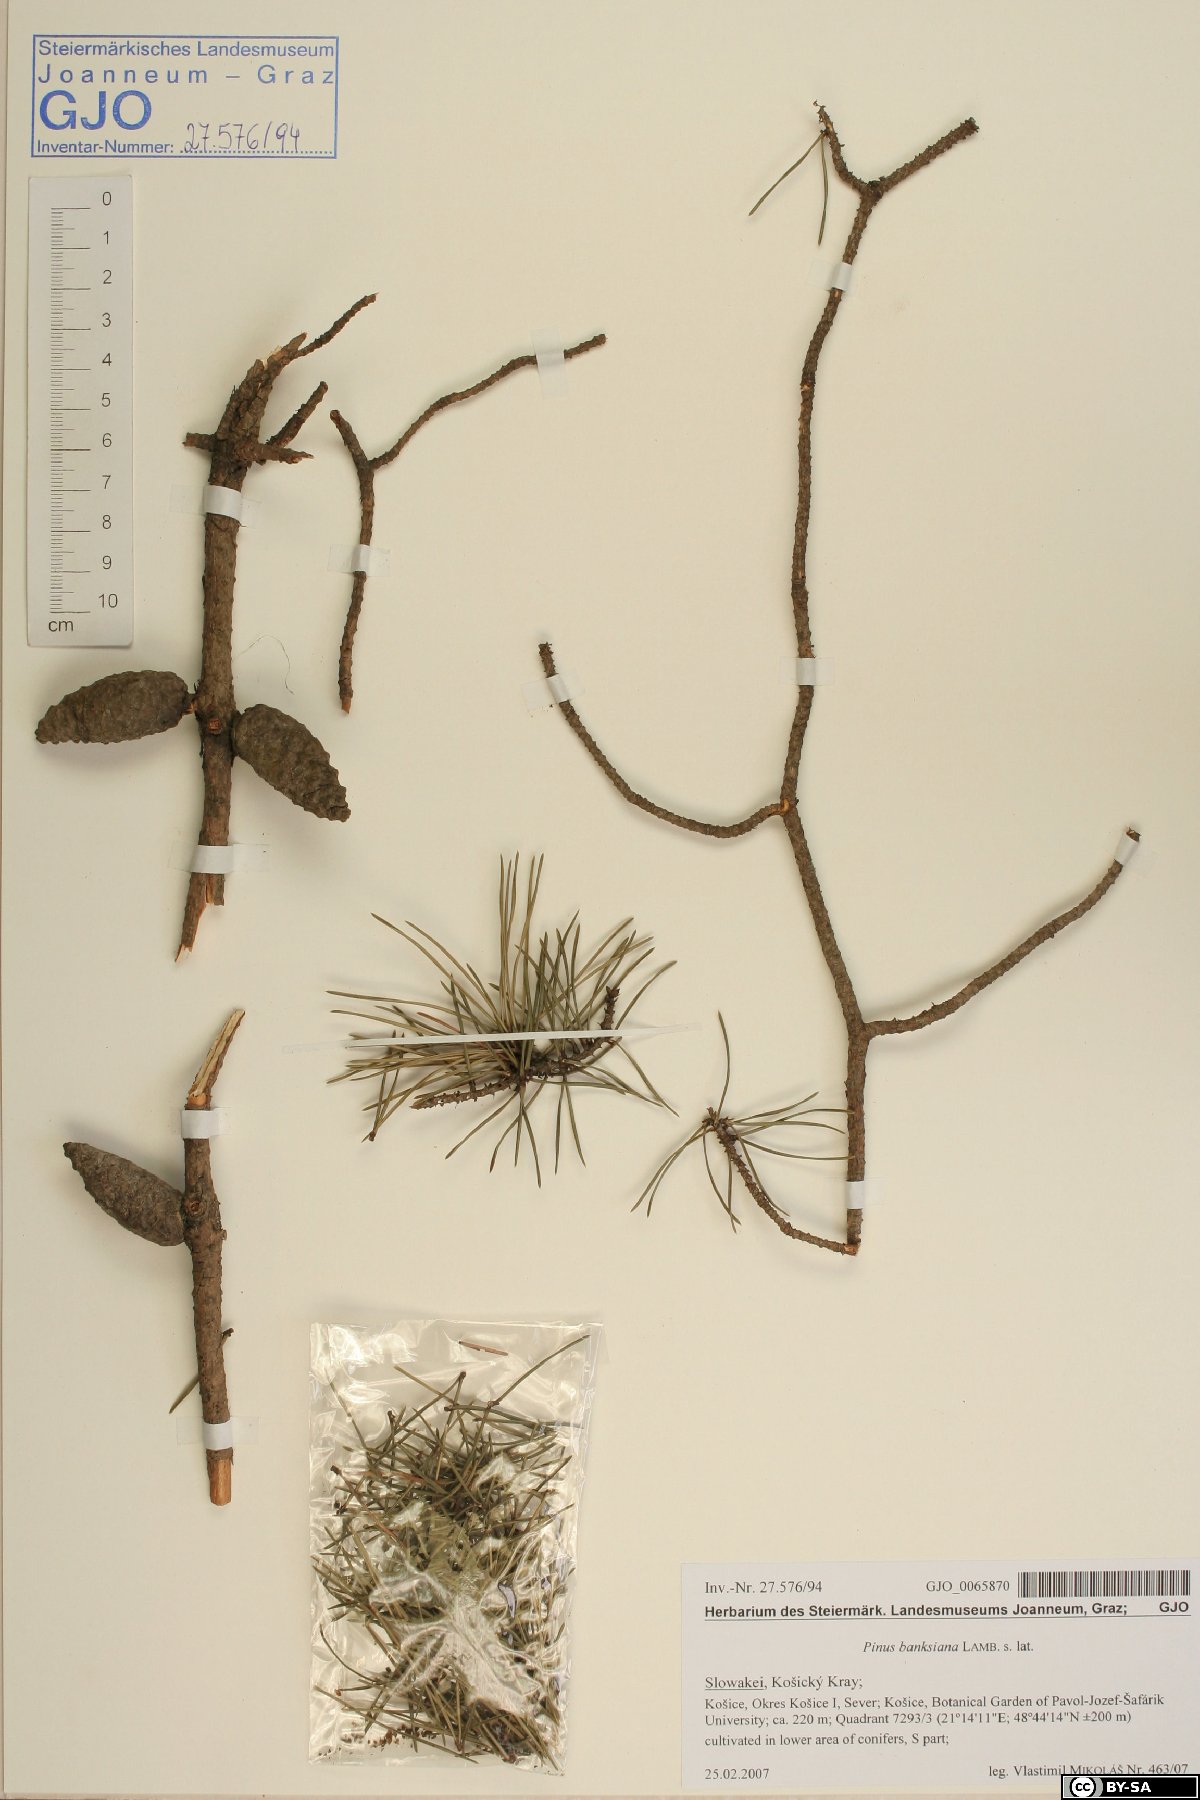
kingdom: Plantae
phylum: Tracheophyta
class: Pinopsida
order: Pinales
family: Pinaceae
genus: Pinus
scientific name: Pinus banksiana
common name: Jack pine
